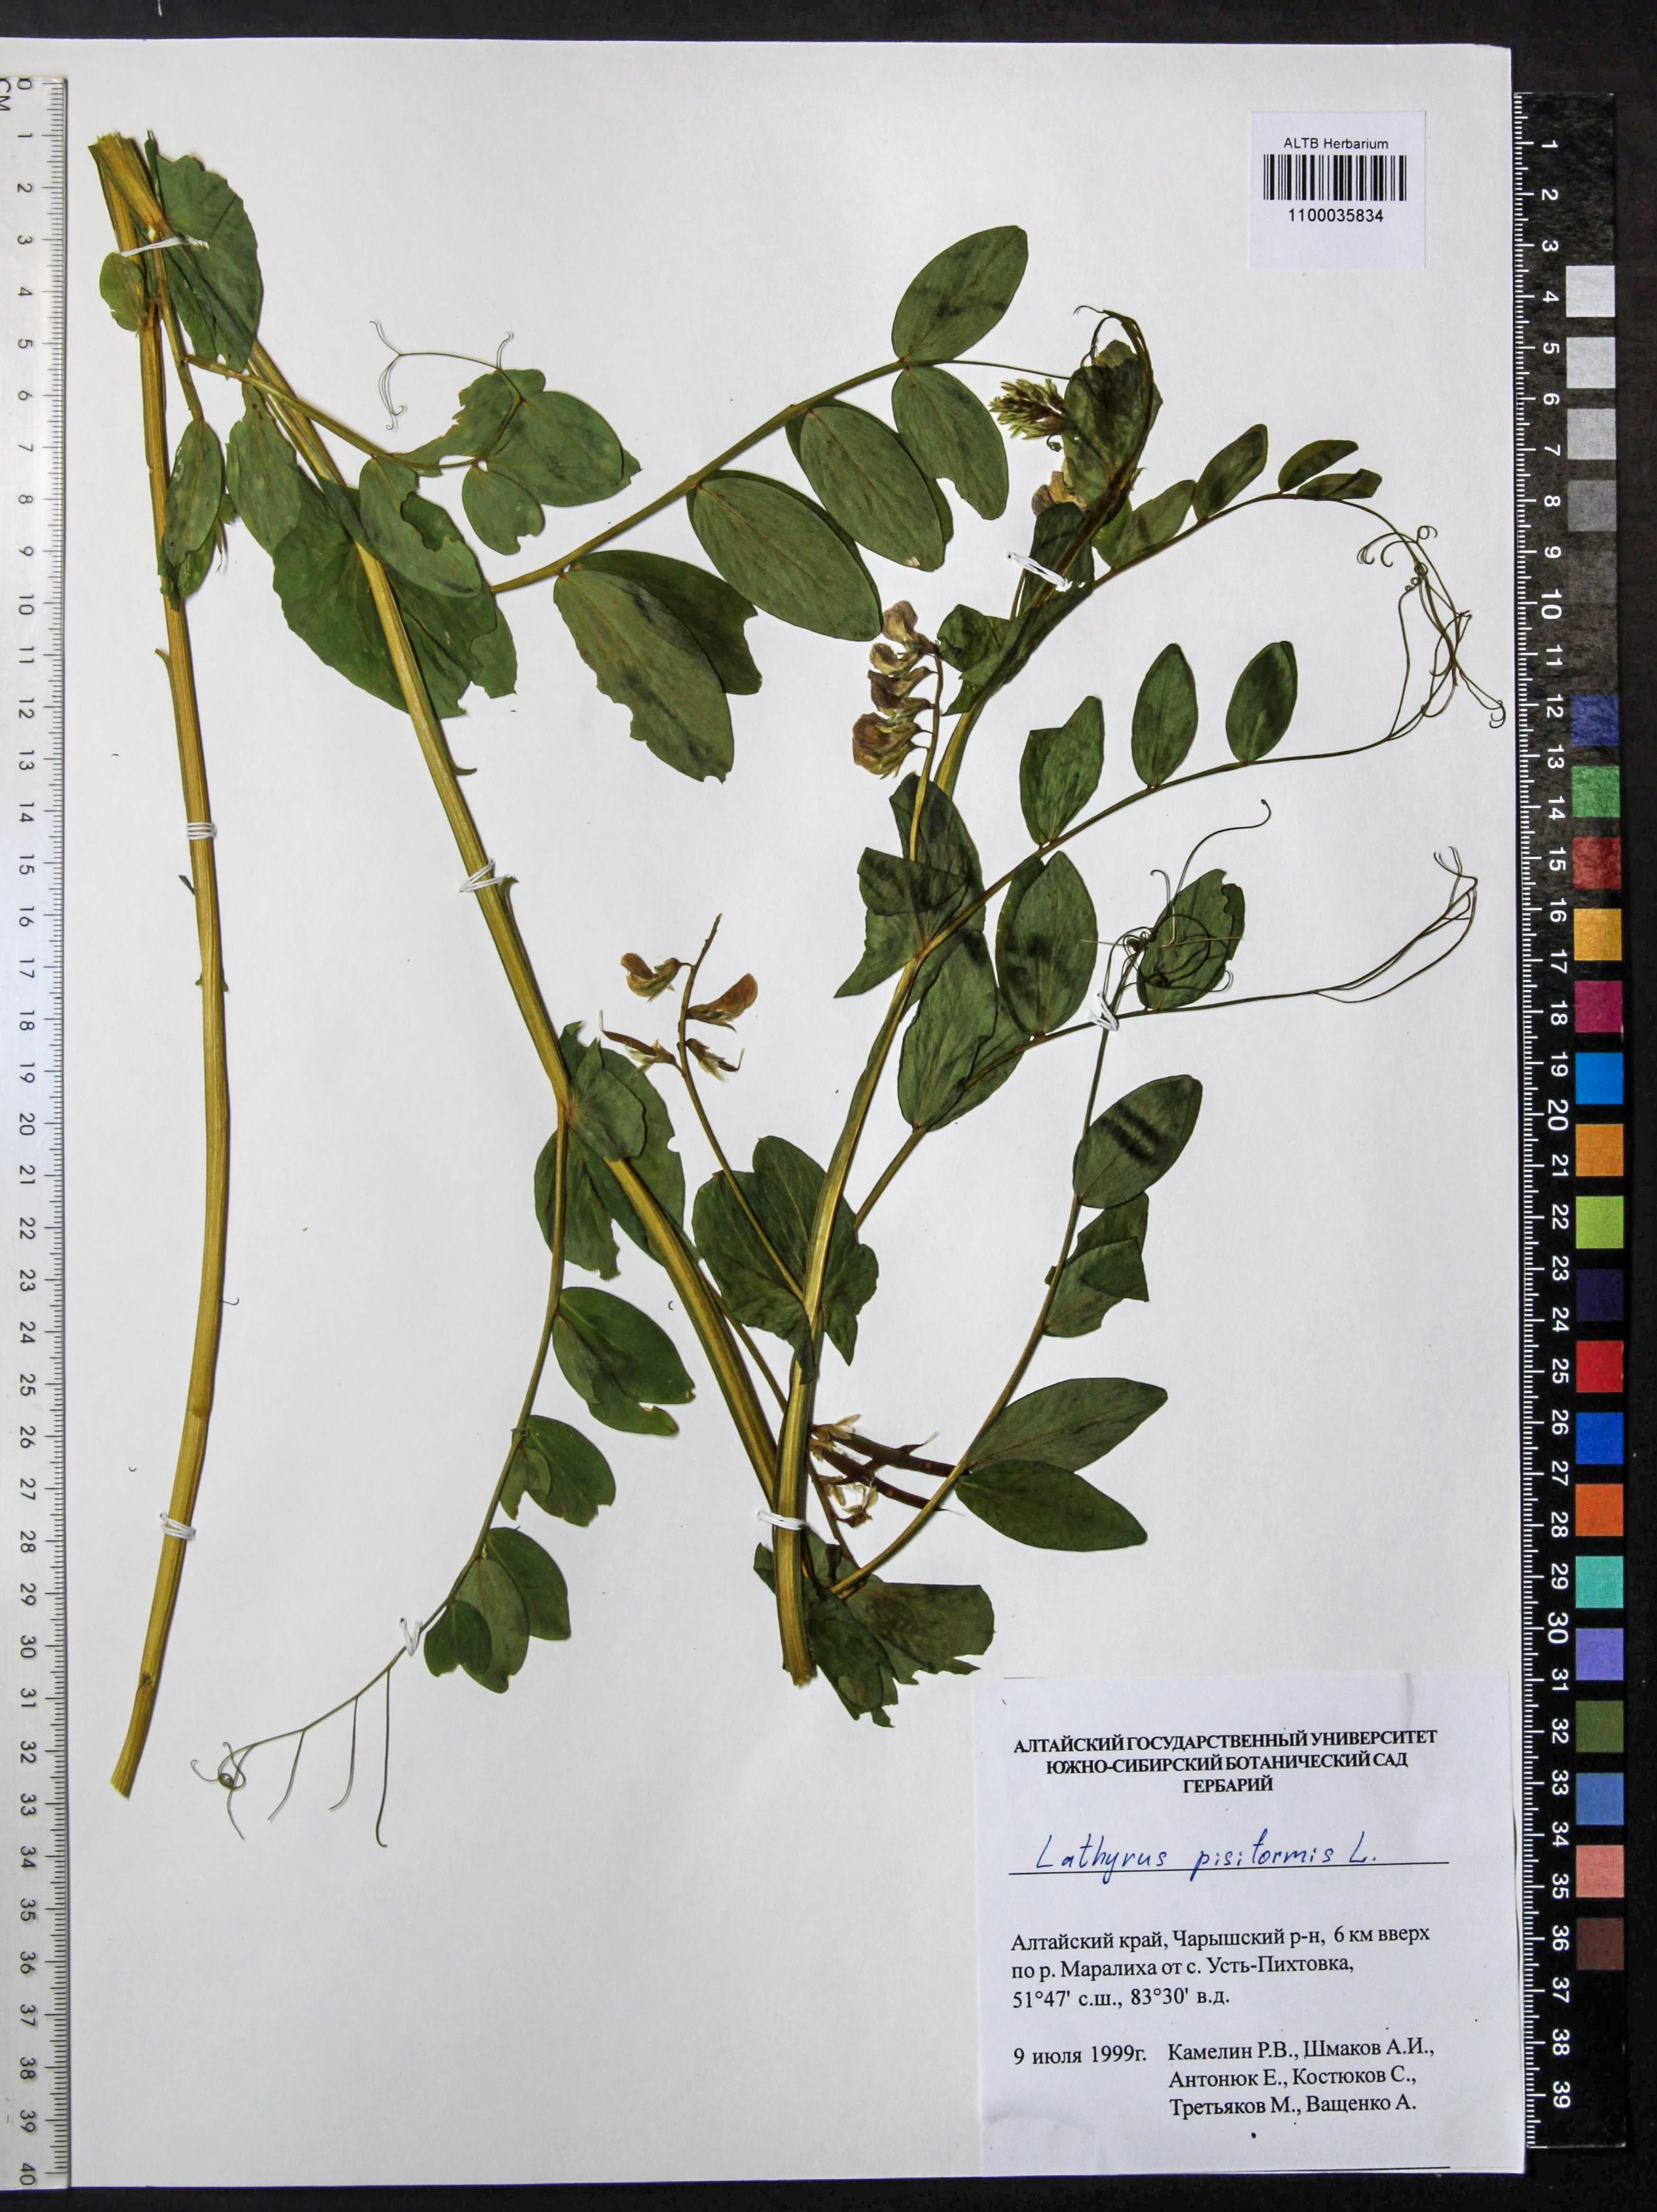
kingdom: Plantae
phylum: Tracheophyta
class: Magnoliopsida
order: Fabales
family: Fabaceae
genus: Lathyrus
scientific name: Lathyrus pisiformis
